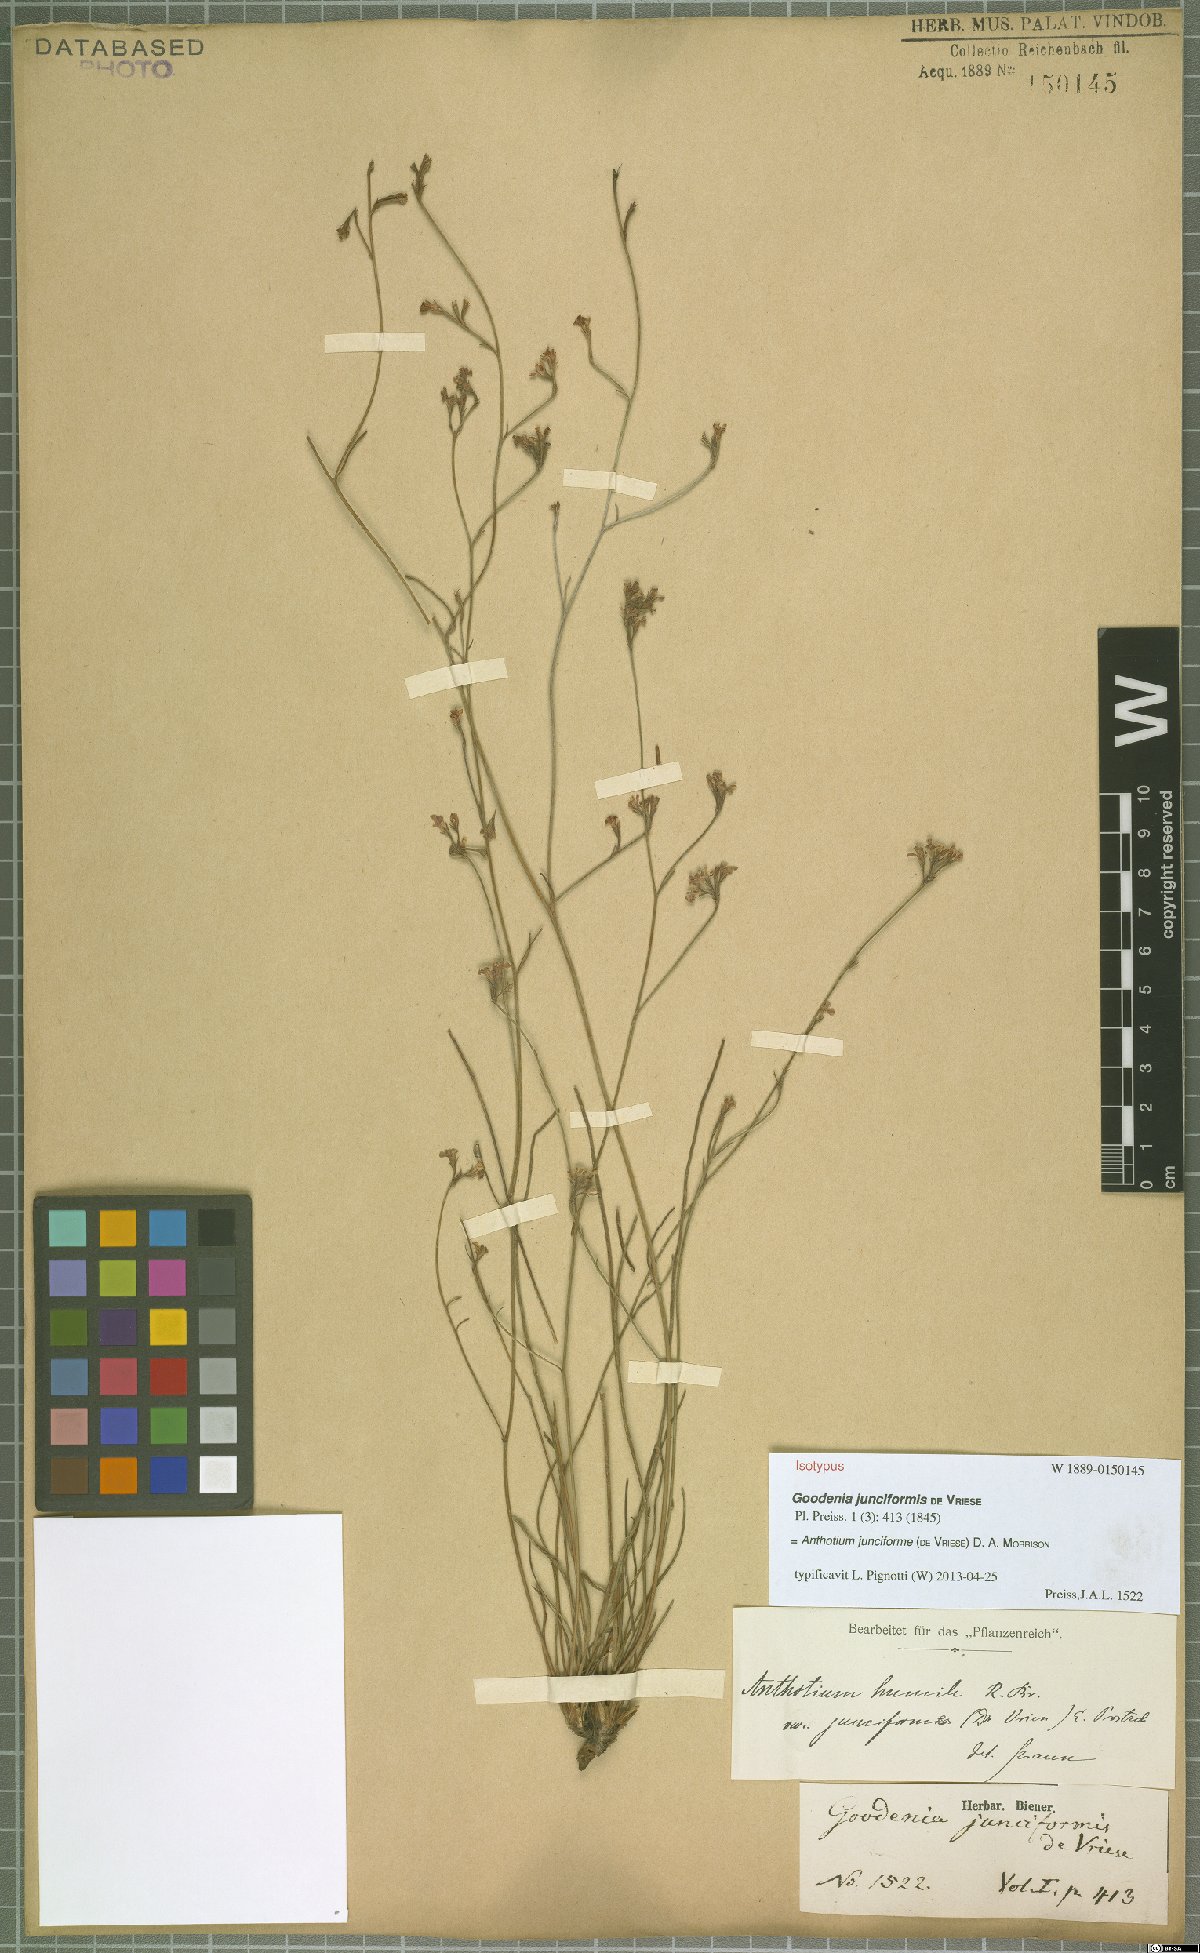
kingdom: Plantae
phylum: Tracheophyta
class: Magnoliopsida
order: Asterales
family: Goodeniaceae
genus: Anthotium
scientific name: Anthotium junciforme
